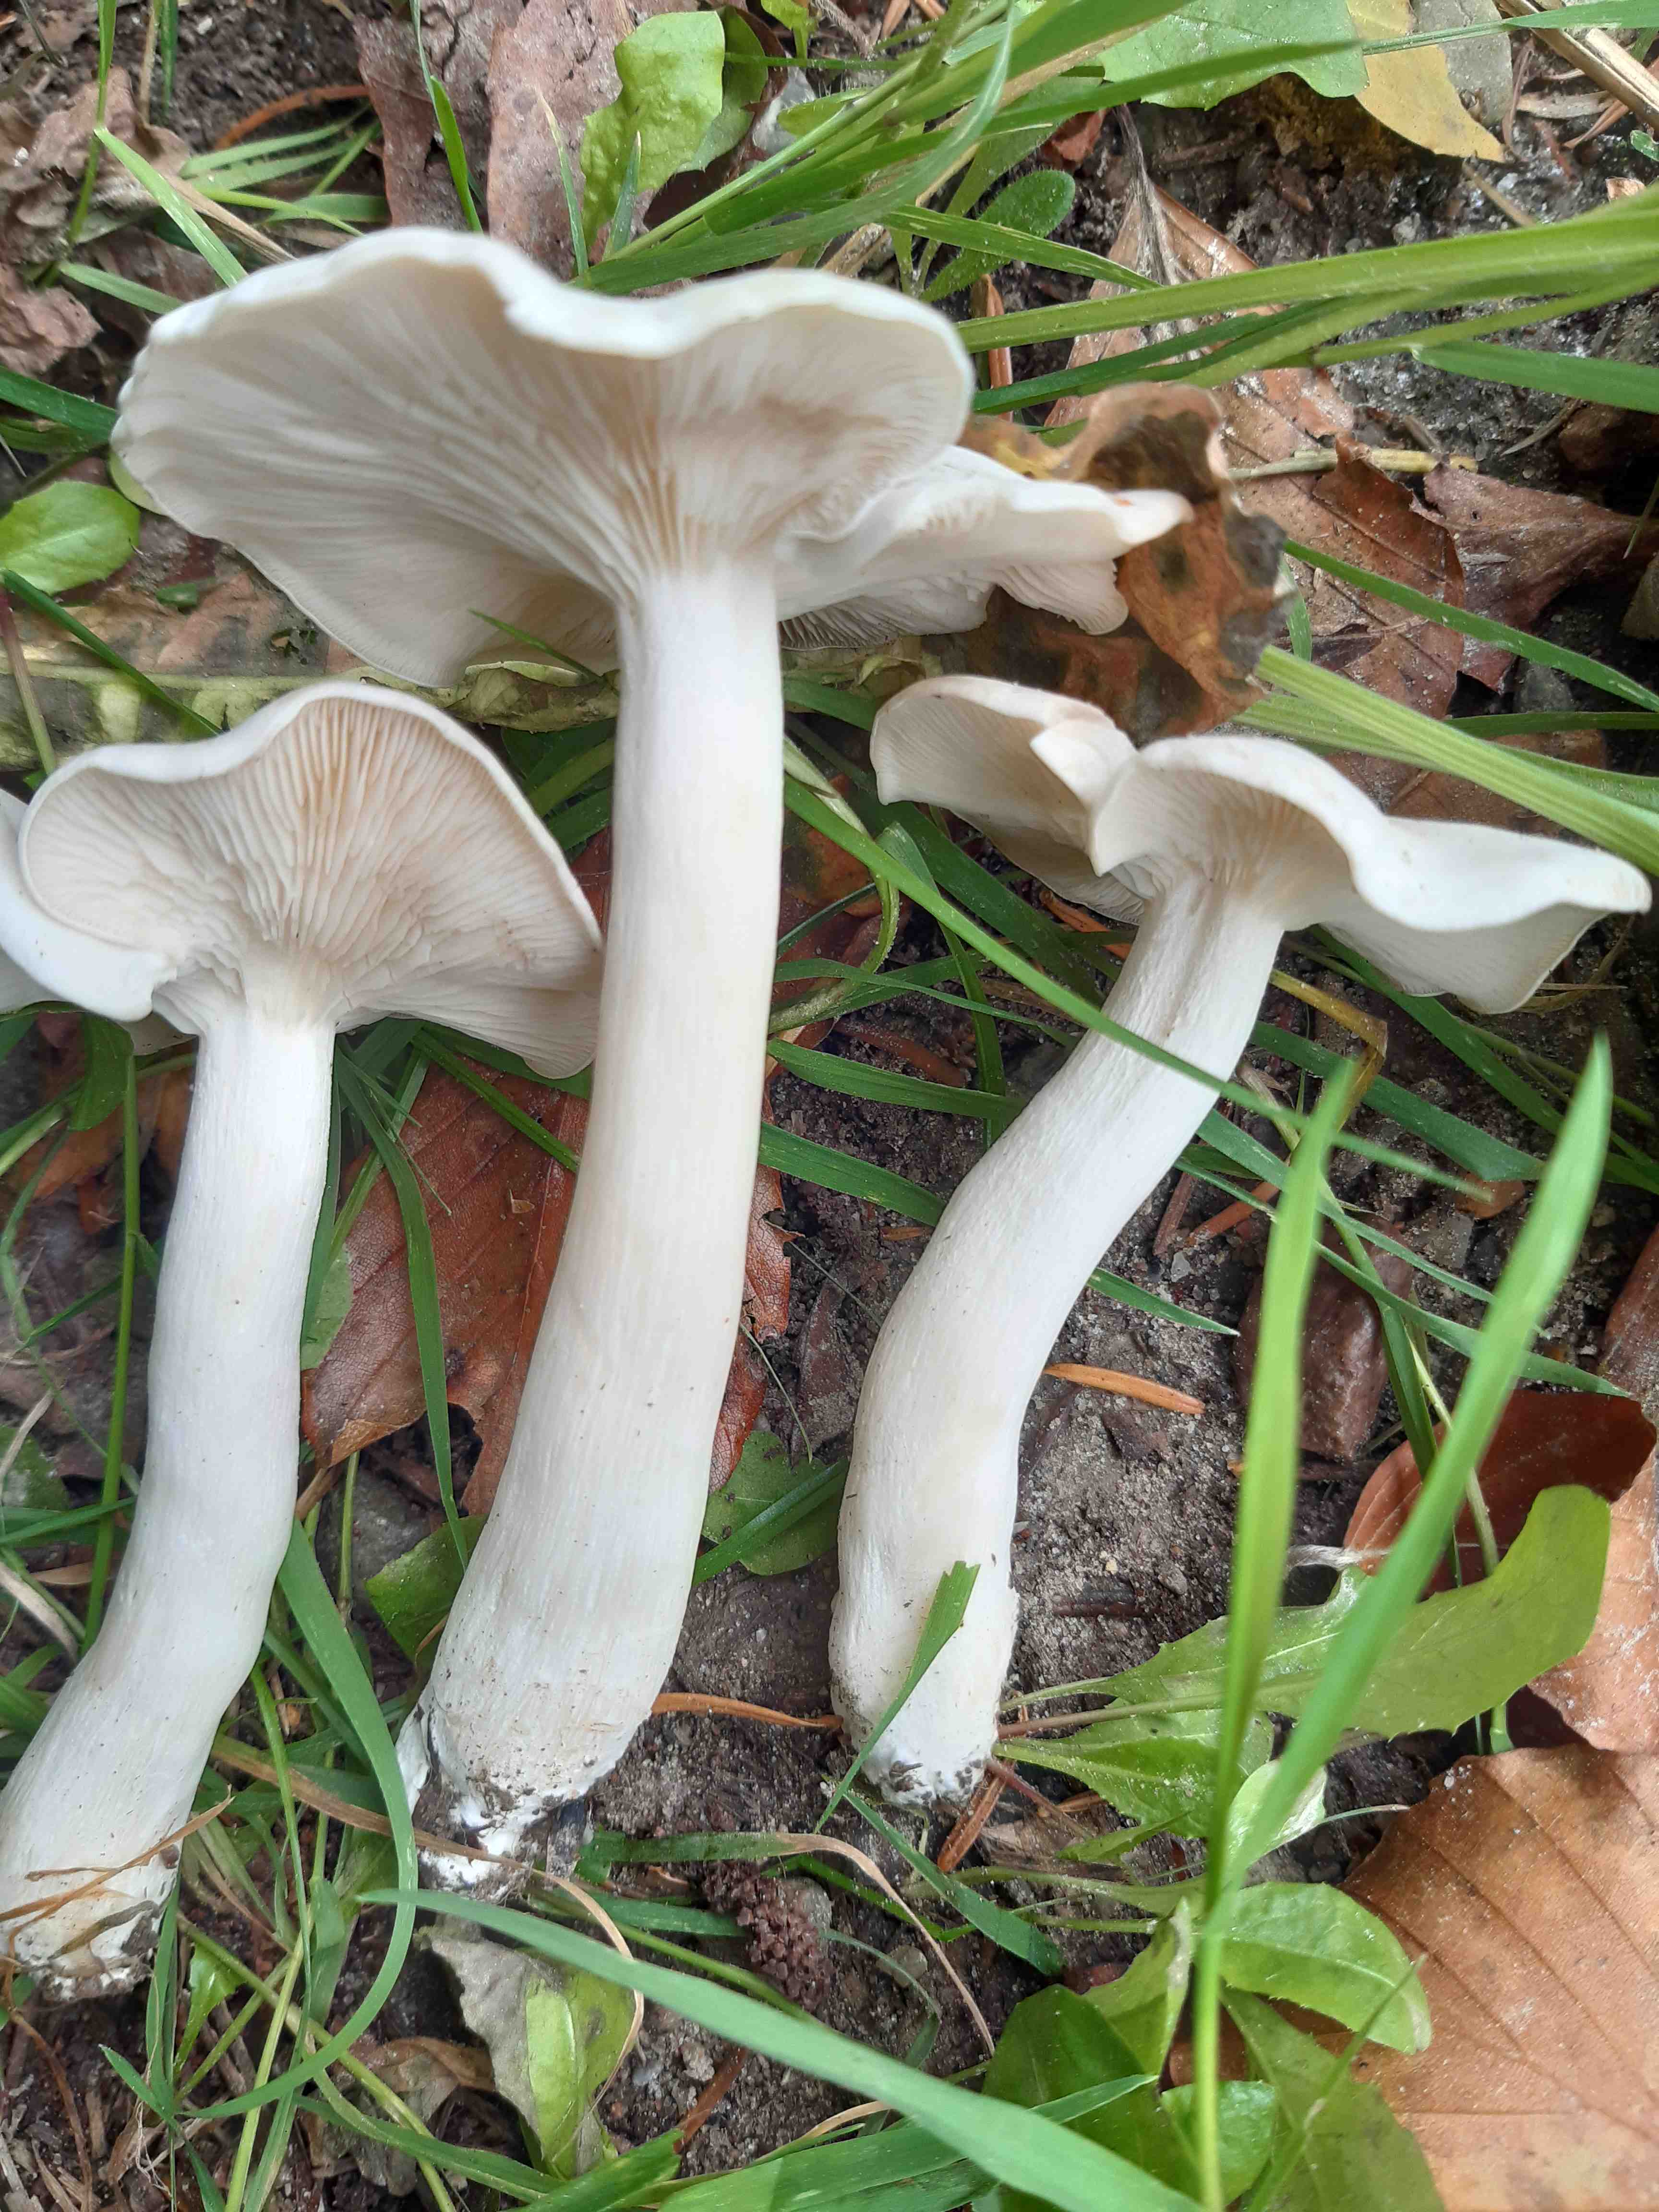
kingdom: Fungi
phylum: Basidiomycota
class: Agaricomycetes
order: Agaricales
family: Tricholomataceae
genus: Leucocybe
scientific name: Leucocybe connata
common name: knippe-tragthat
